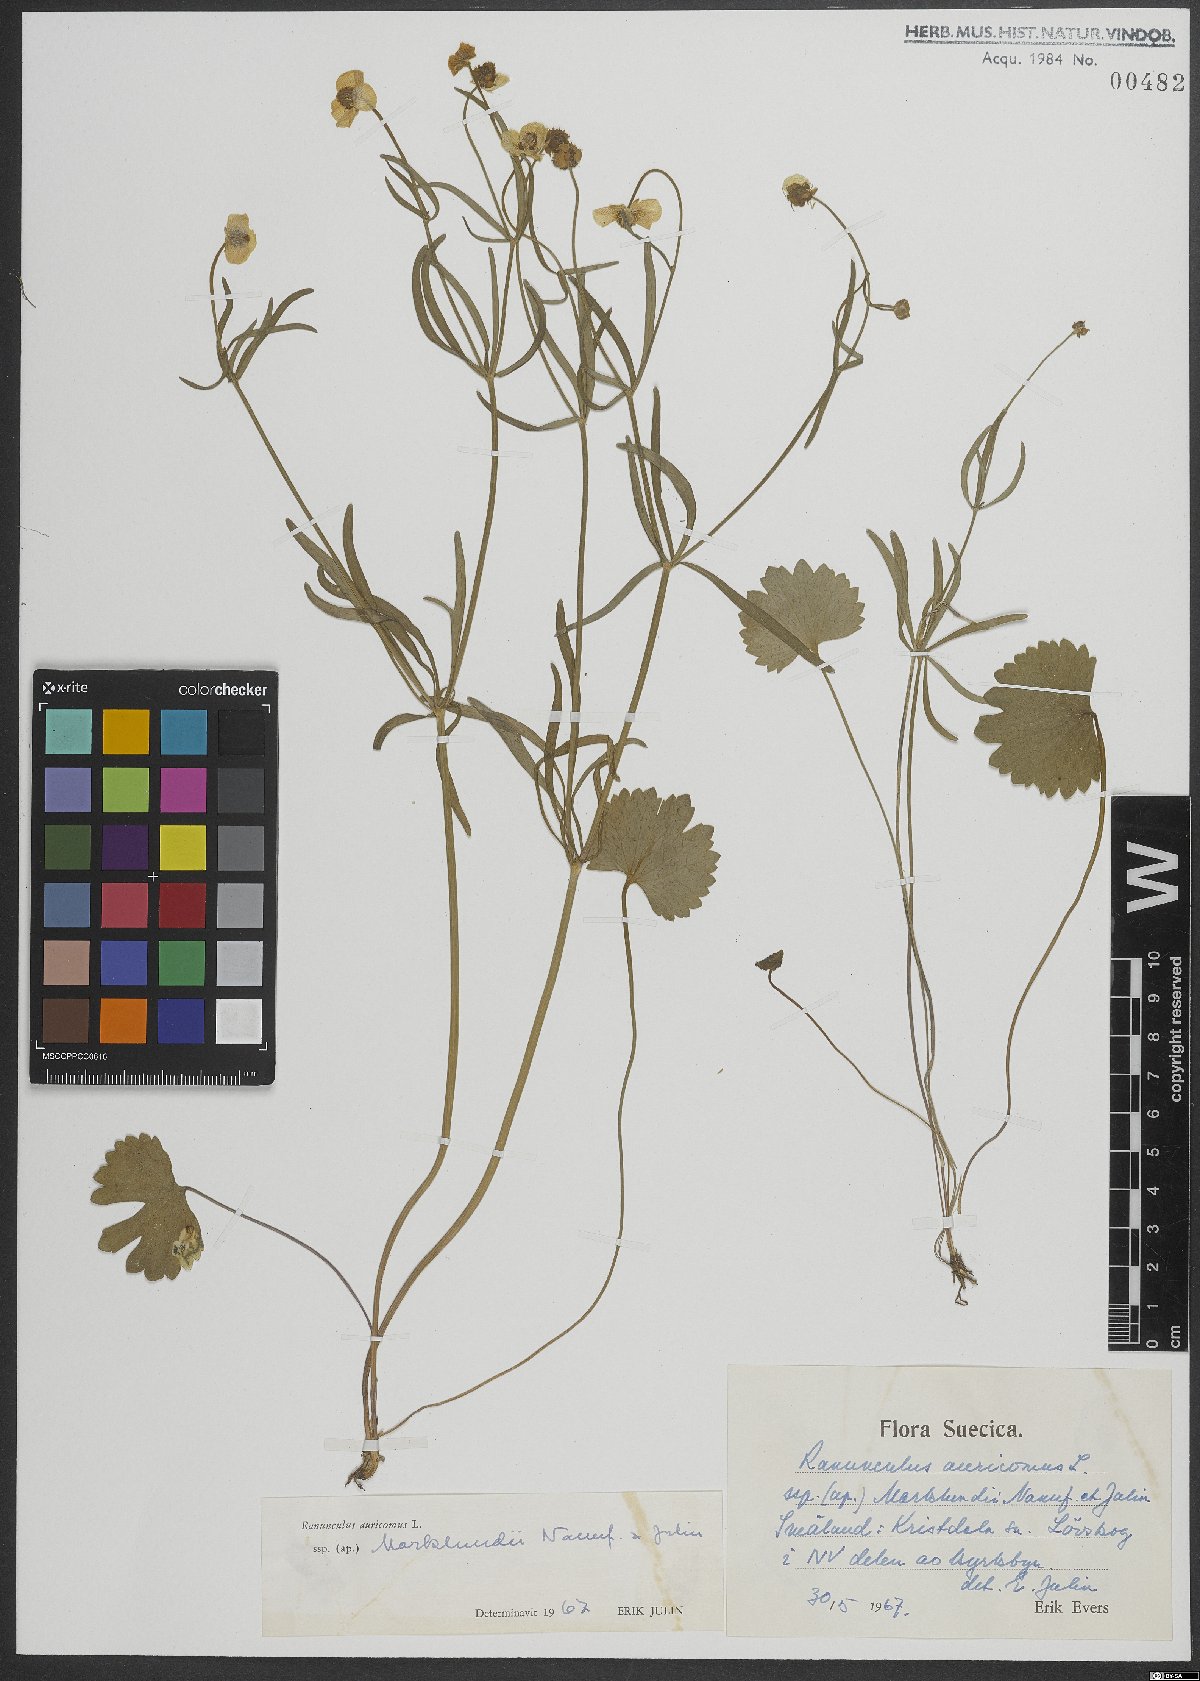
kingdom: Plantae
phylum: Tracheophyta
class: Magnoliopsida
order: Ranunculales
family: Ranunculaceae
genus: Ranunculus
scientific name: Ranunculus auricomus
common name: Goldilocks buttercup
